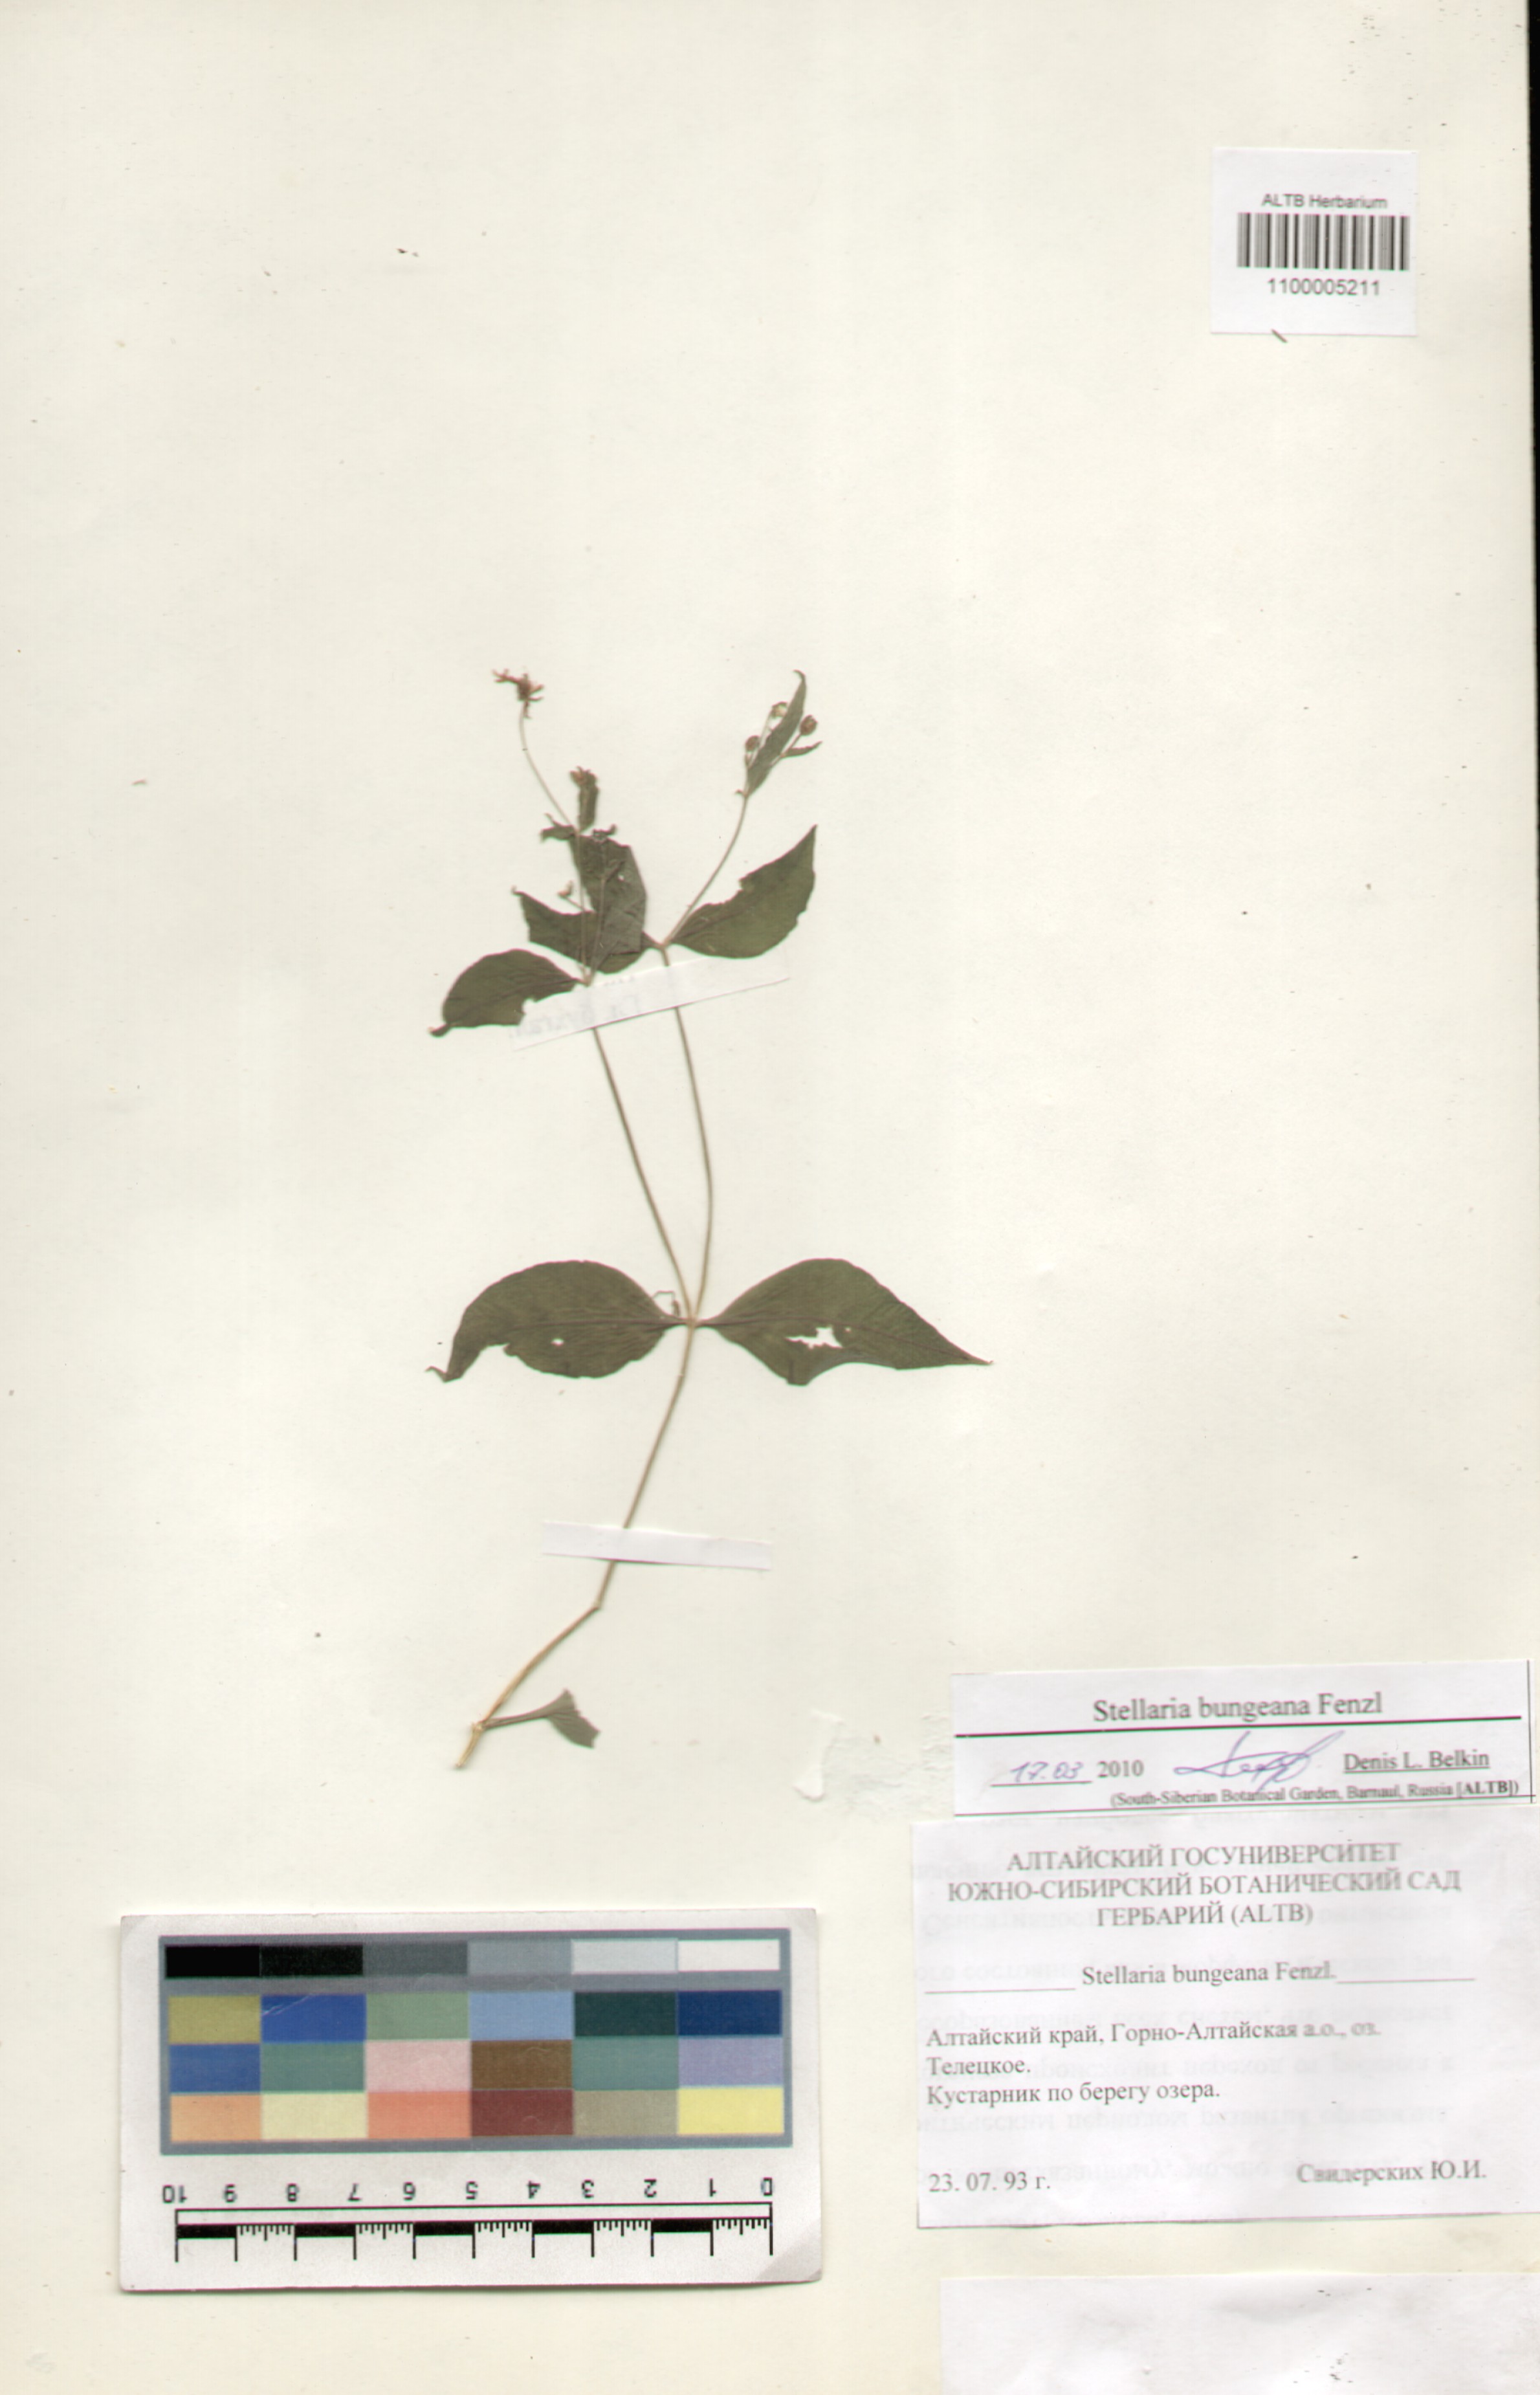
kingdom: Plantae
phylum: Tracheophyta
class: Magnoliopsida
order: Caryophyllales
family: Caryophyllaceae
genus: Stellaria
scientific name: Stellaria bungeana
